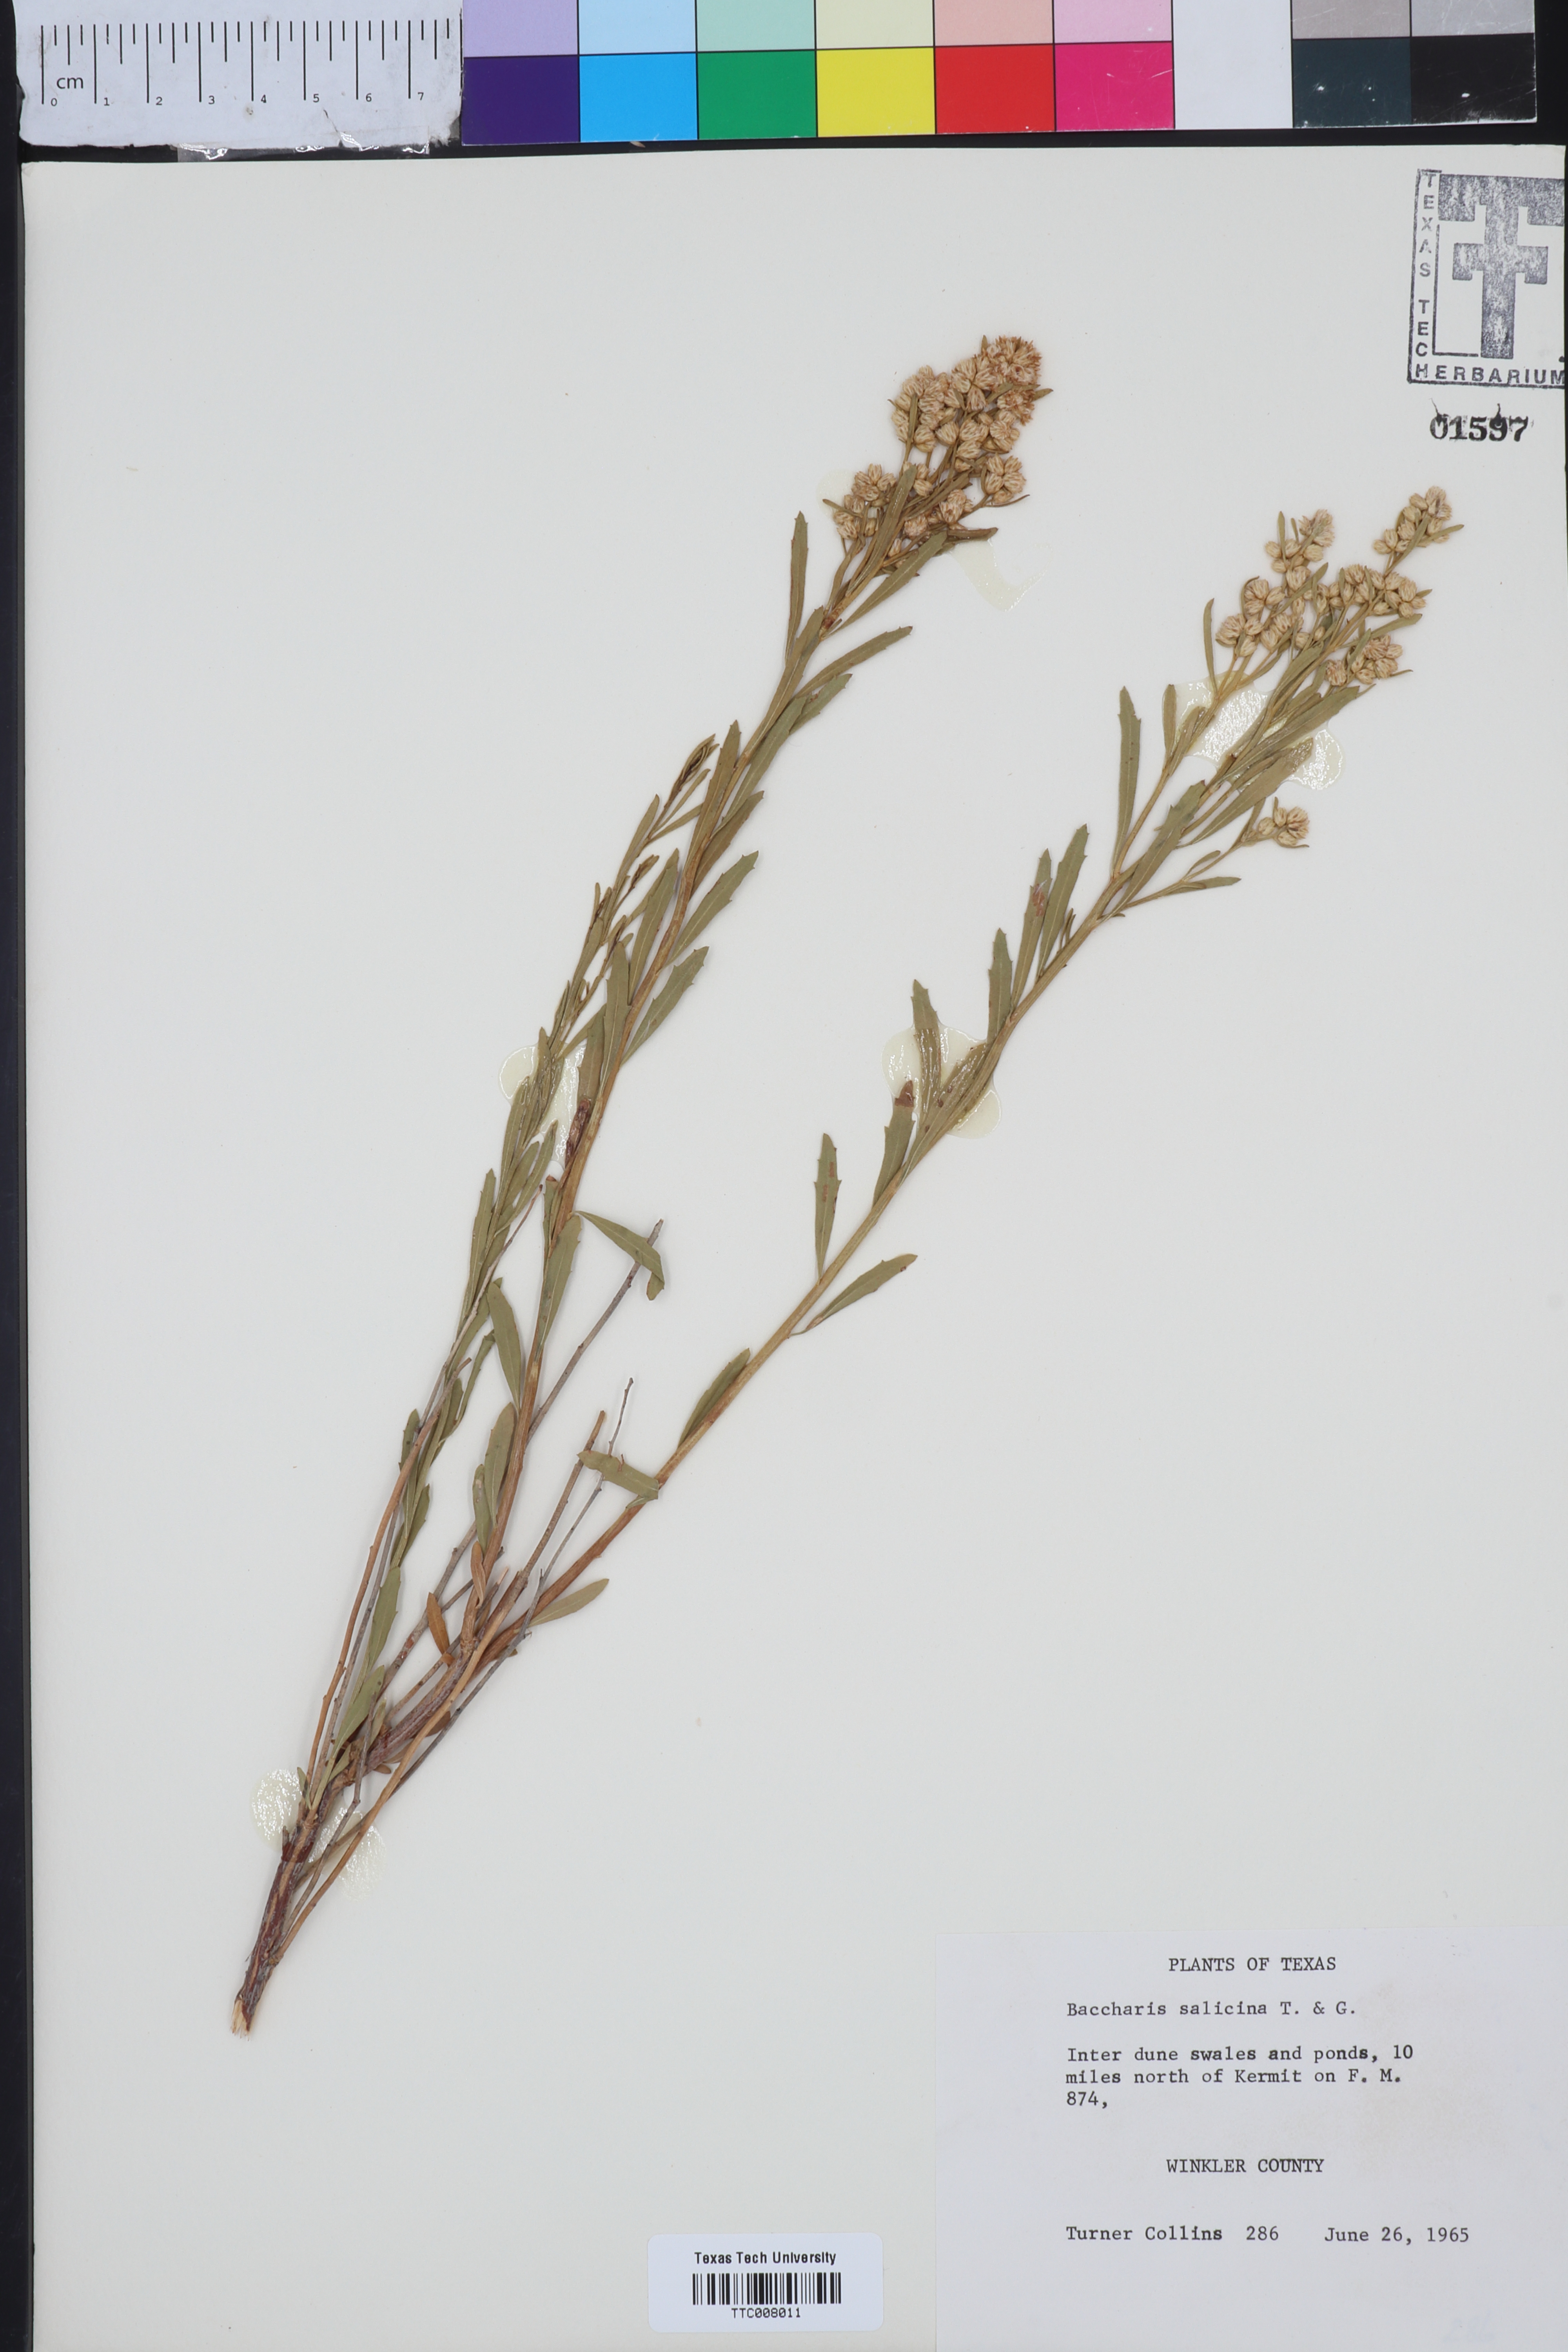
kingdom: Plantae
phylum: Tracheophyta
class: Magnoliopsida
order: Asterales
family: Asteraceae
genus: Baccharis
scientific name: Baccharis salicina
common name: Willow baccharis
